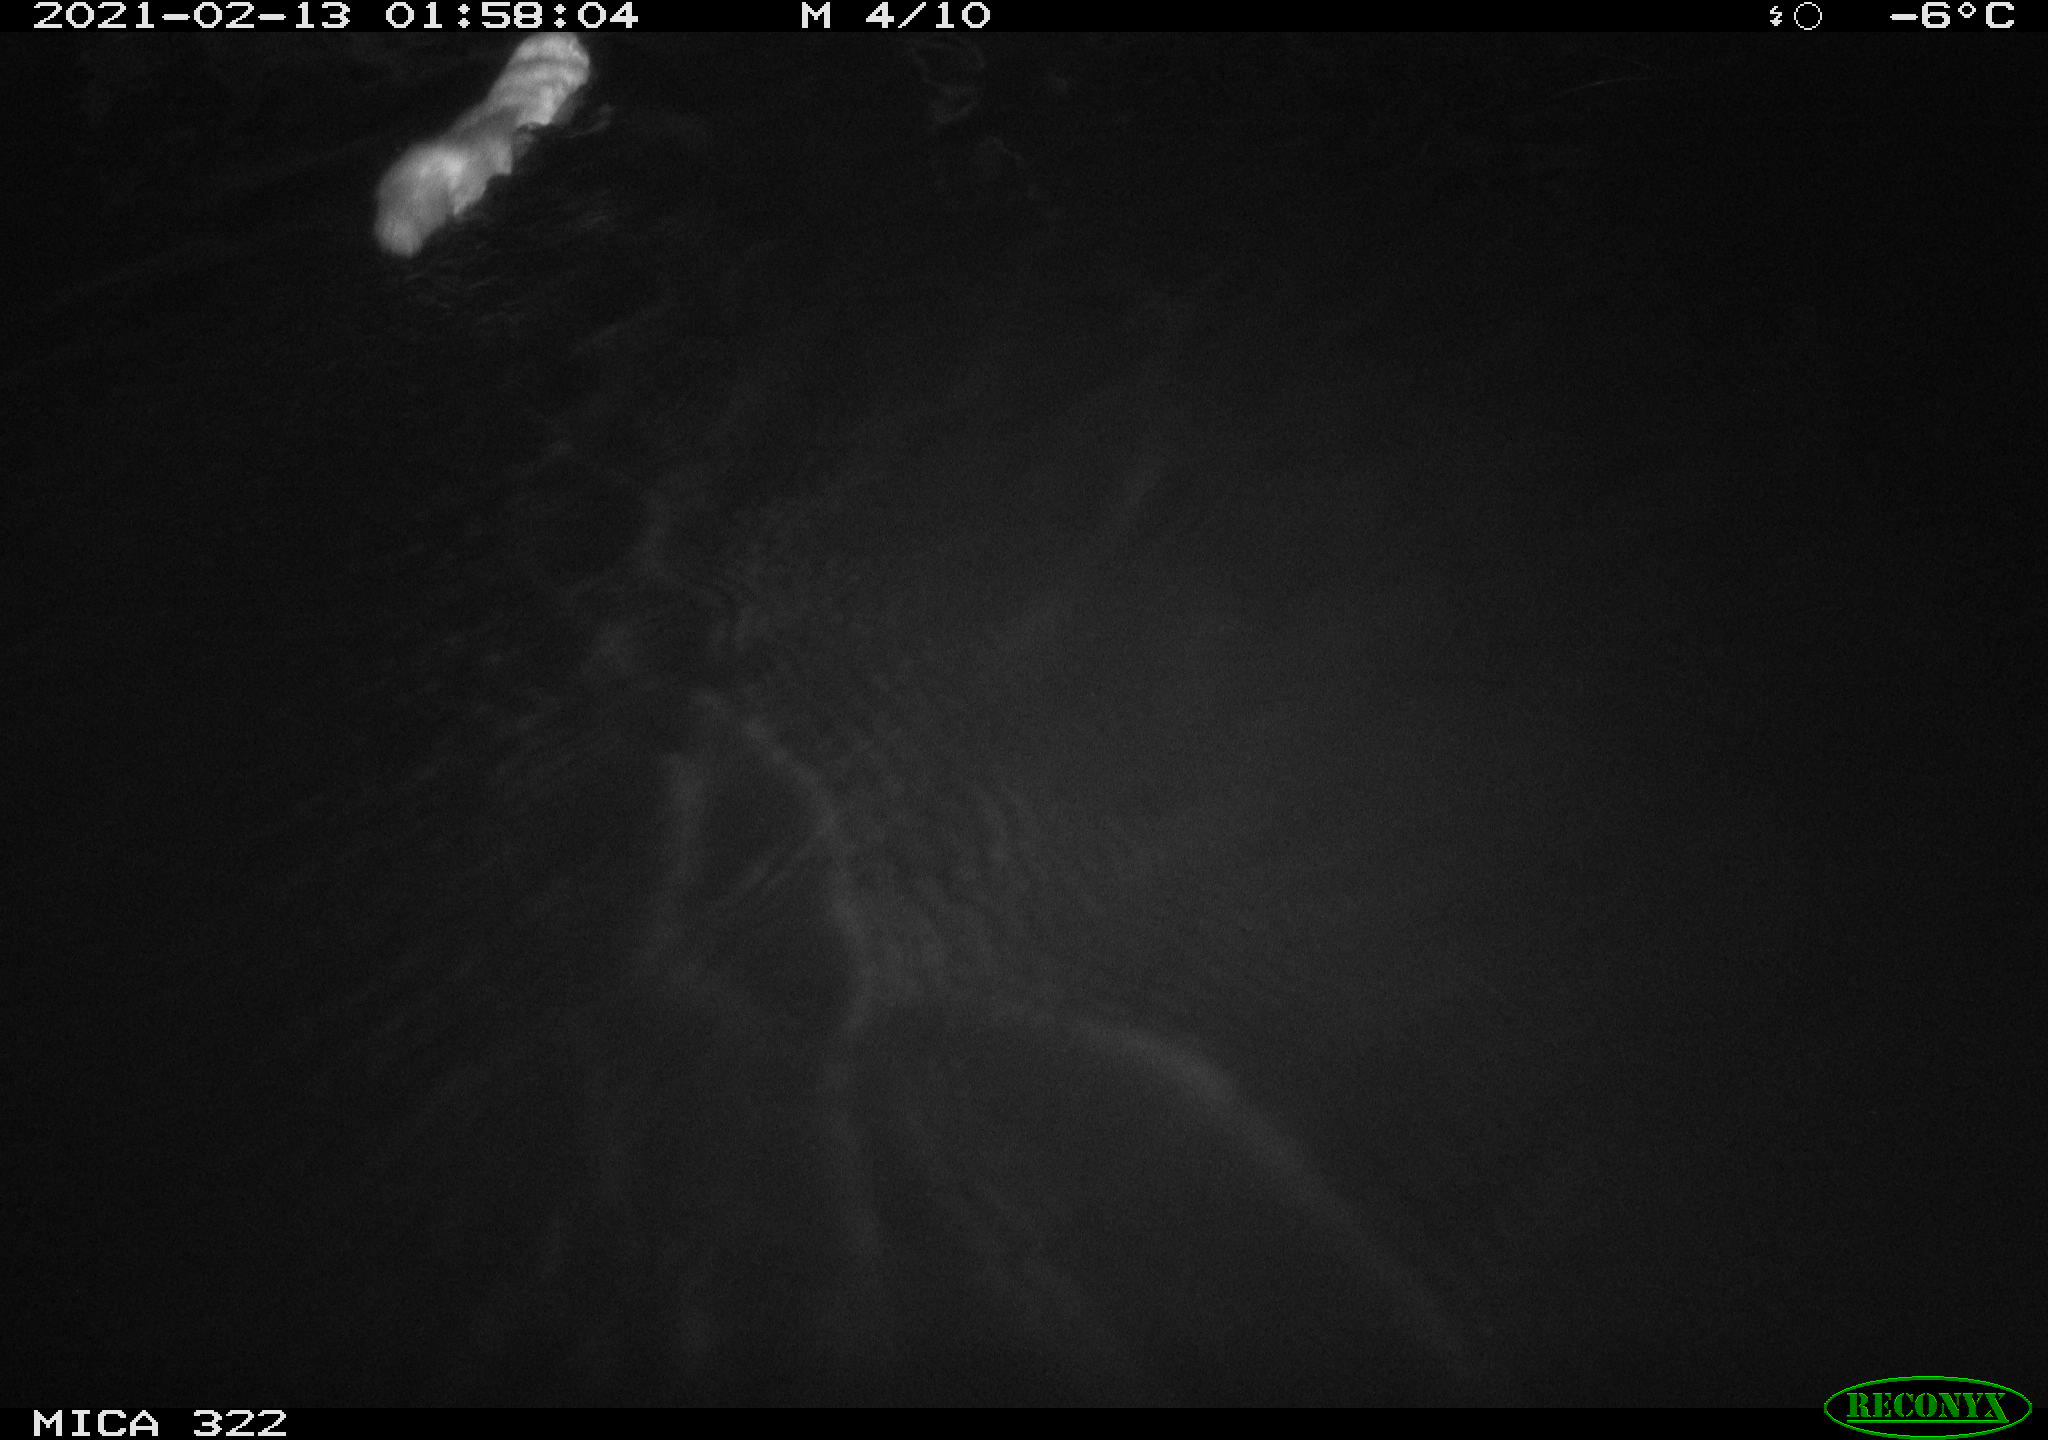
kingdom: Animalia
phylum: Chordata
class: Mammalia
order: Carnivora
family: Mustelidae
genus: Mustela
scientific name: Mustela putorius
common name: European polecat
